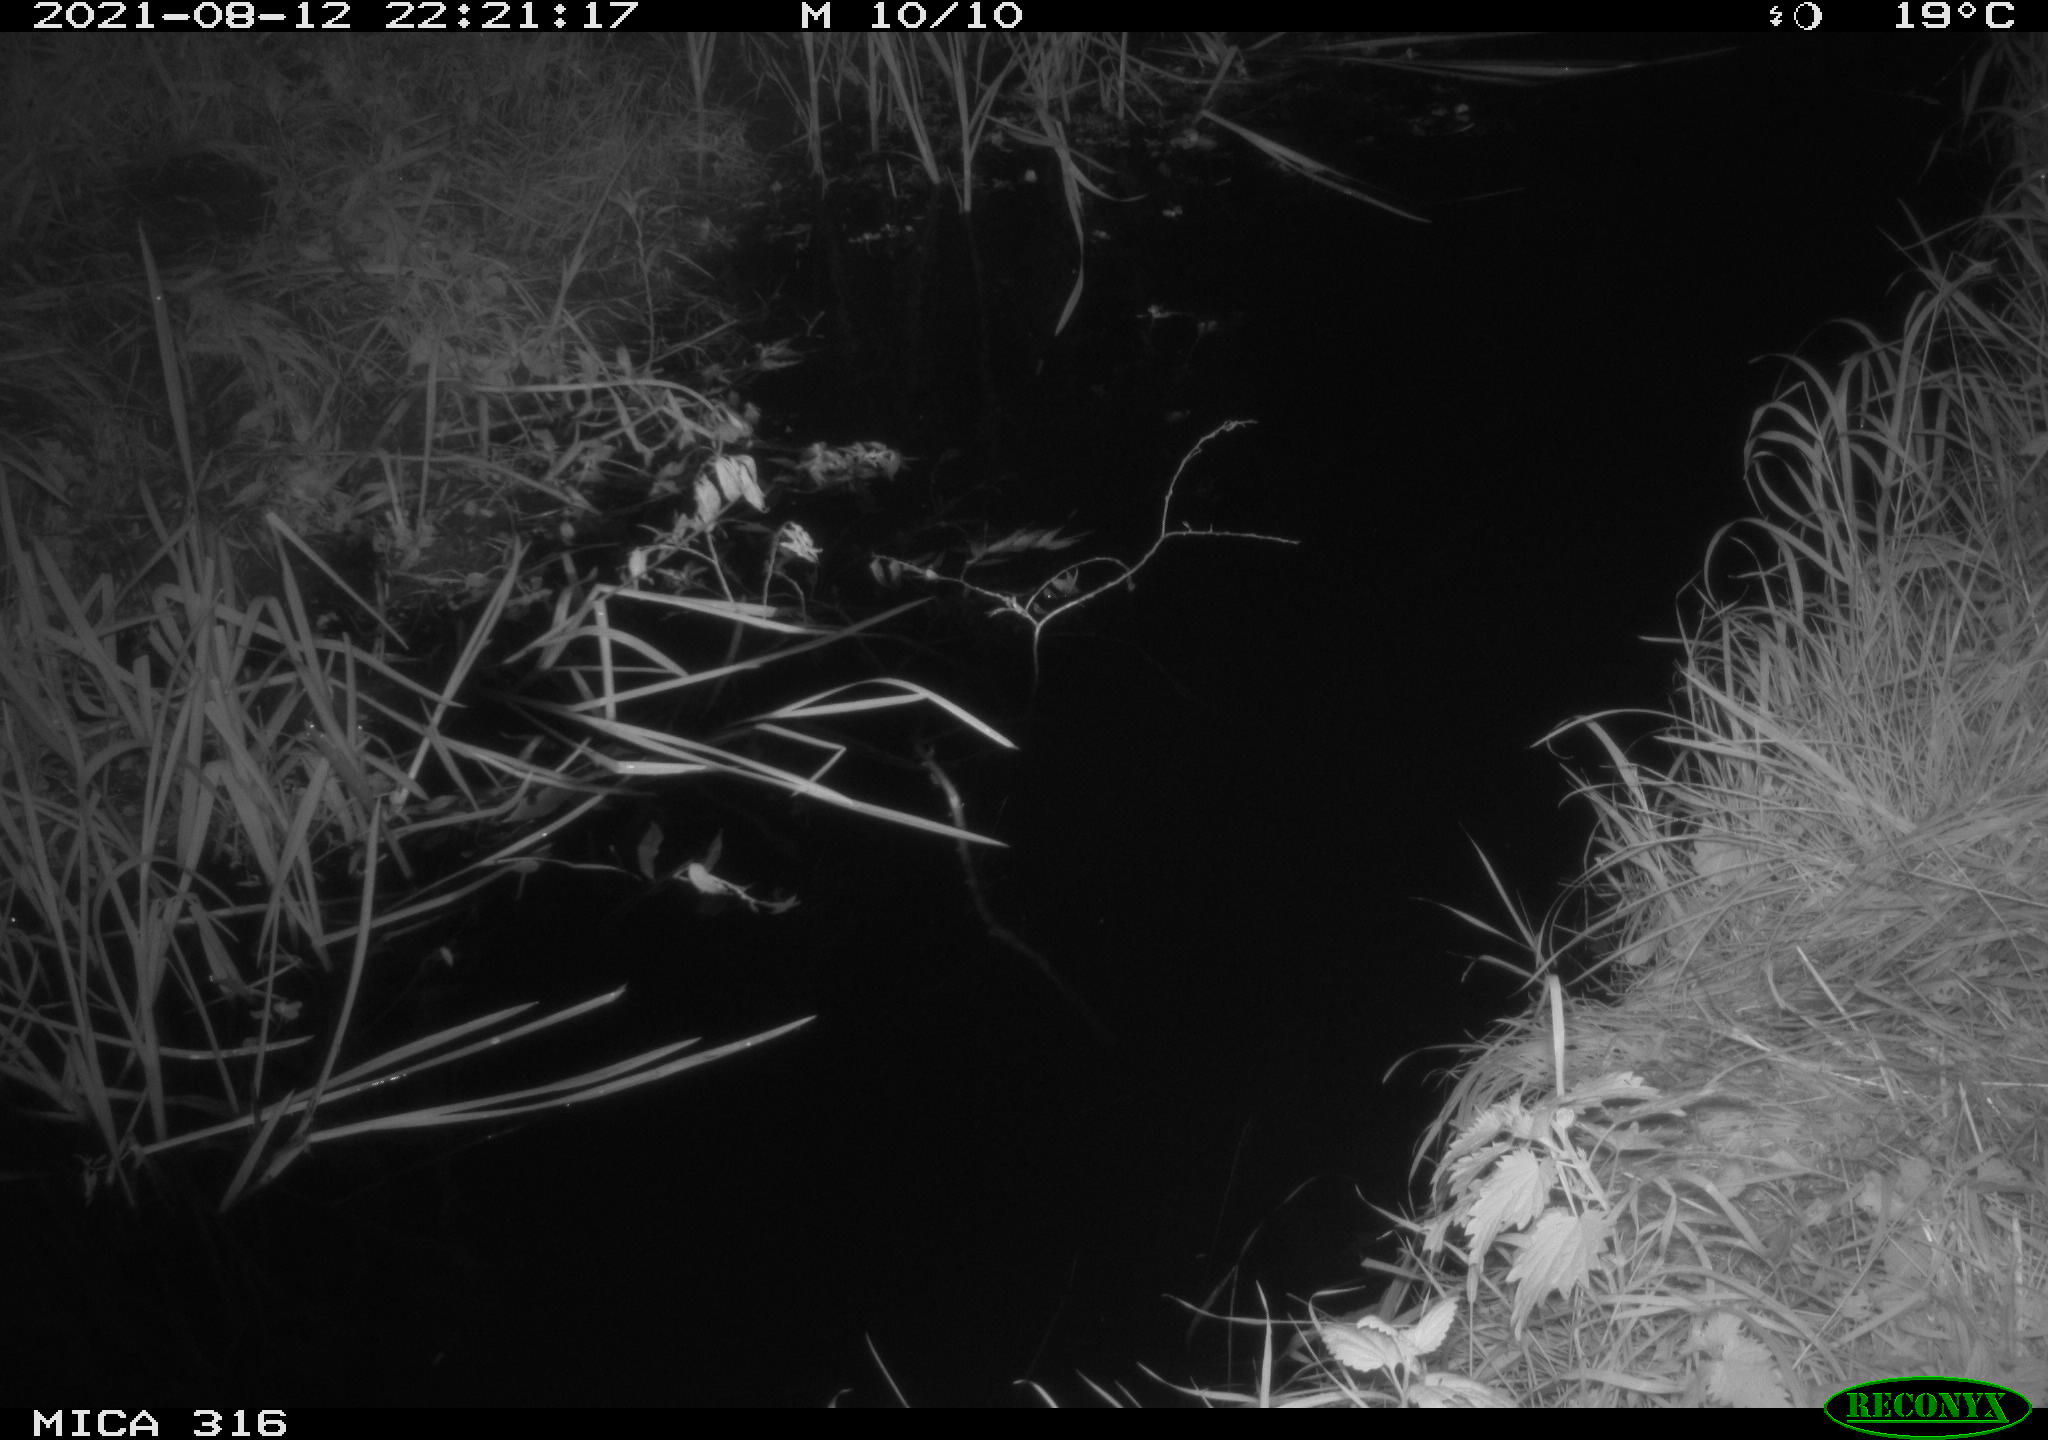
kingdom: Animalia
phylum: Chordata
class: Mammalia
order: Rodentia
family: Muridae
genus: Rattus
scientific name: Rattus norvegicus
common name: Brown rat
